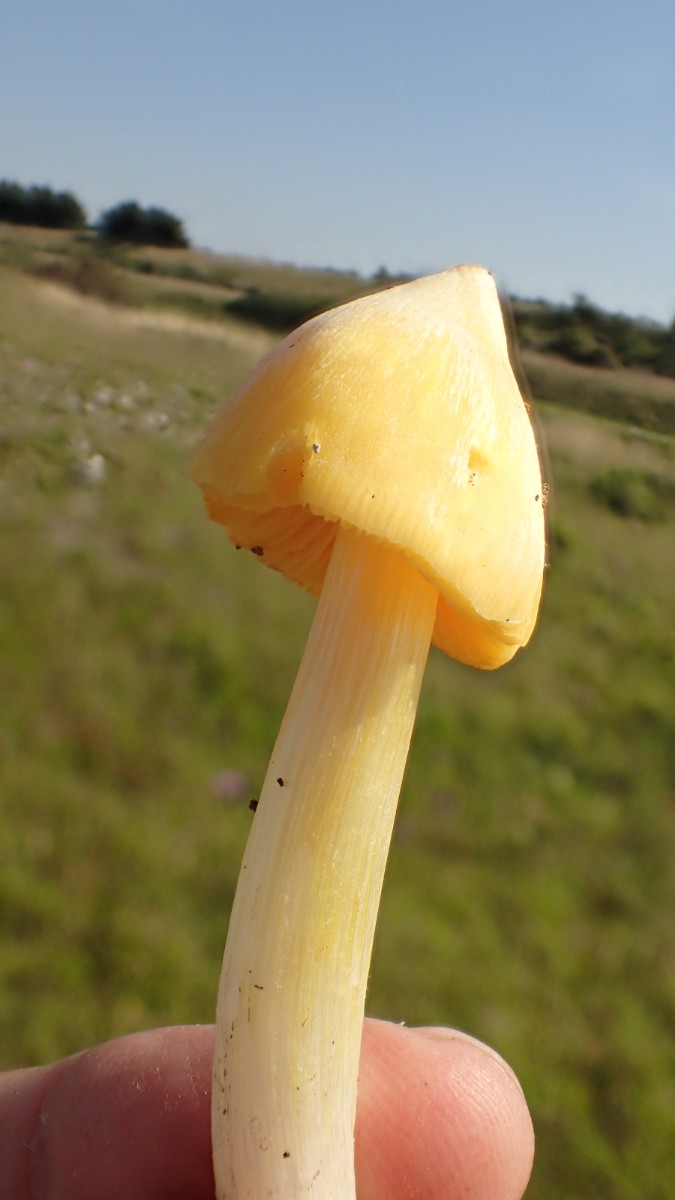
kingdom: Fungi
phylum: Basidiomycota
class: Agaricomycetes
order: Agaricales
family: Hygrophoraceae
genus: Hygrocybe
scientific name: Hygrocybe acutoconica
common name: spidspuklet vokshat
